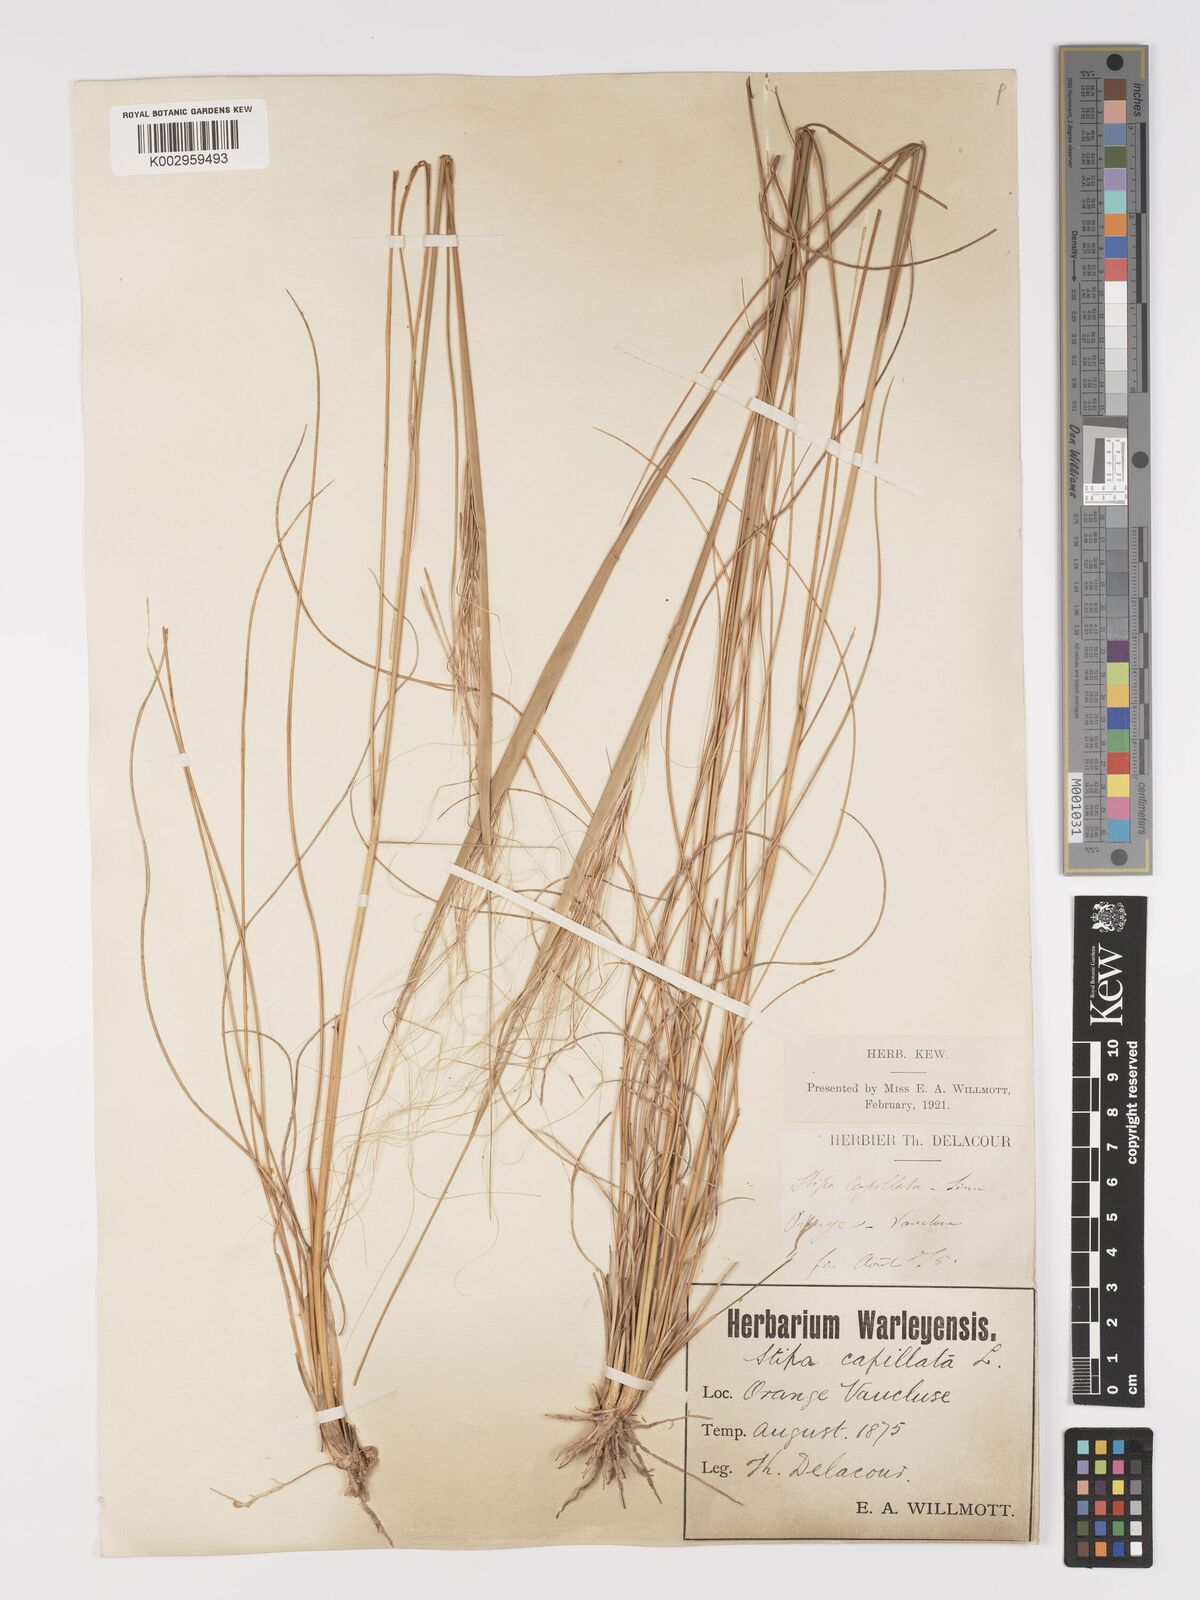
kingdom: Plantae
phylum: Tracheophyta
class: Liliopsida
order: Poales
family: Poaceae
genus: Stipa
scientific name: Stipa capillata
